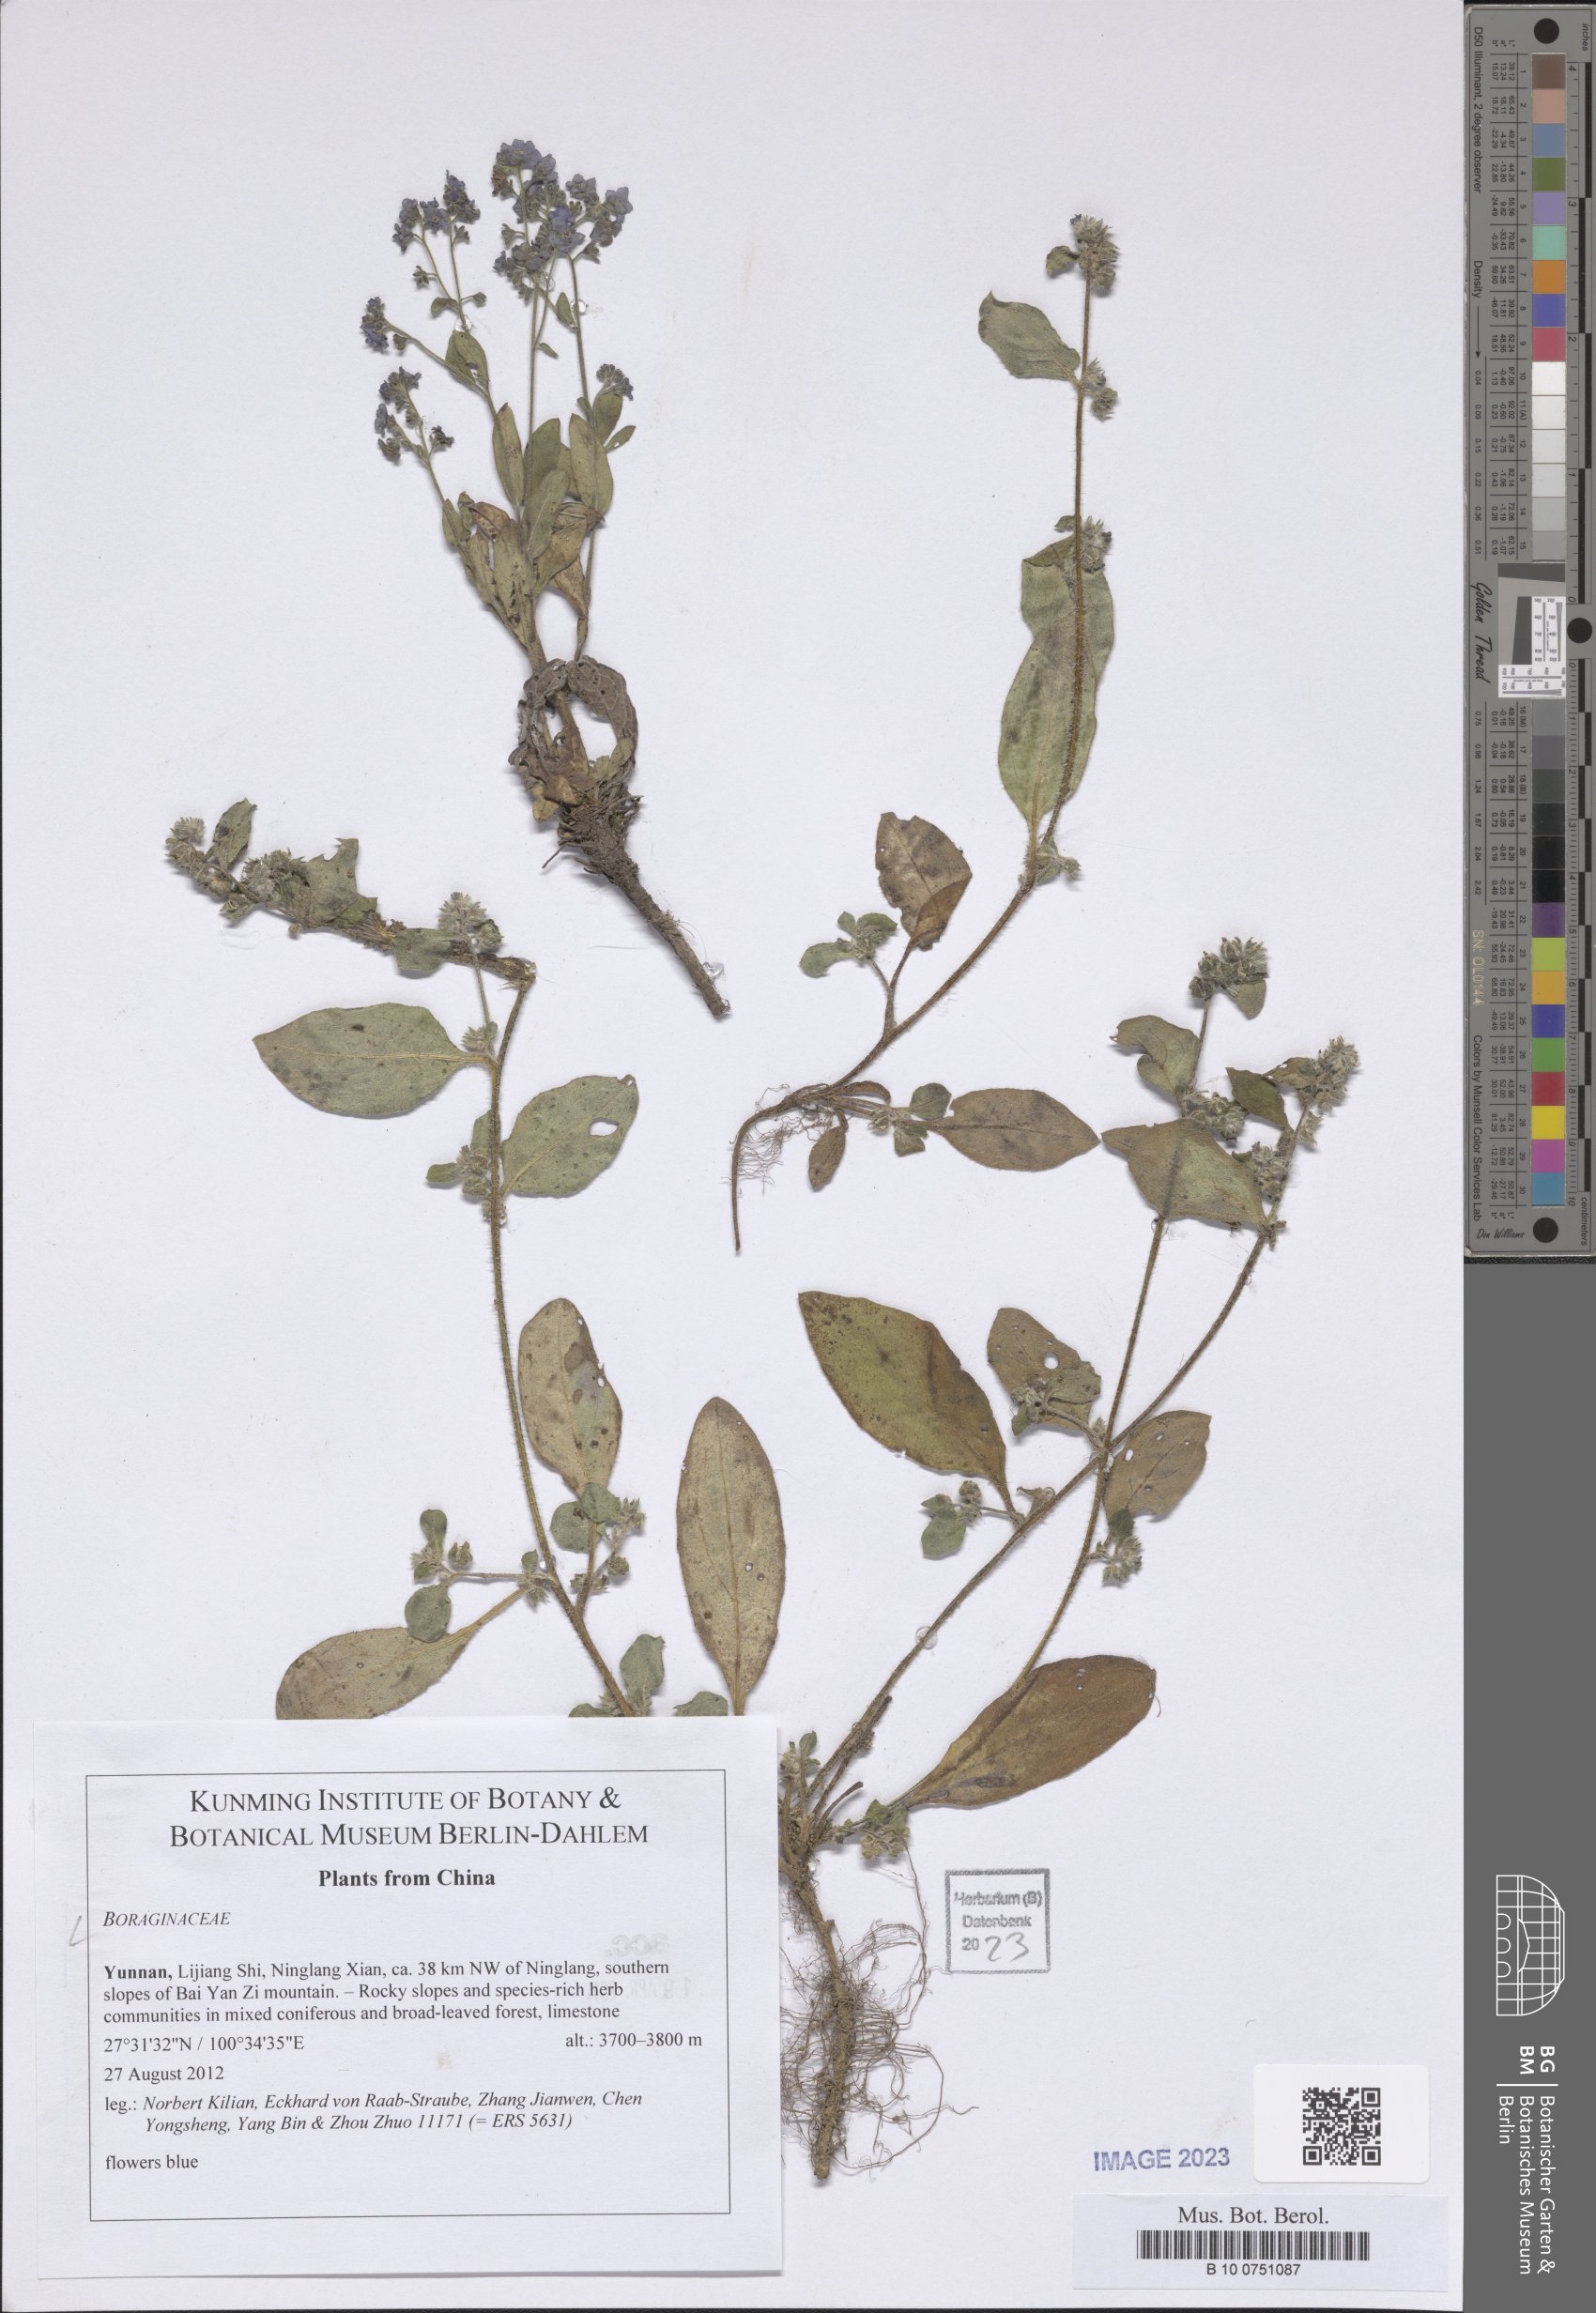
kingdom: Plantae
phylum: Tracheophyta
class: Magnoliopsida
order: Boraginales
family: Boraginaceae
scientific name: Boraginaceae
